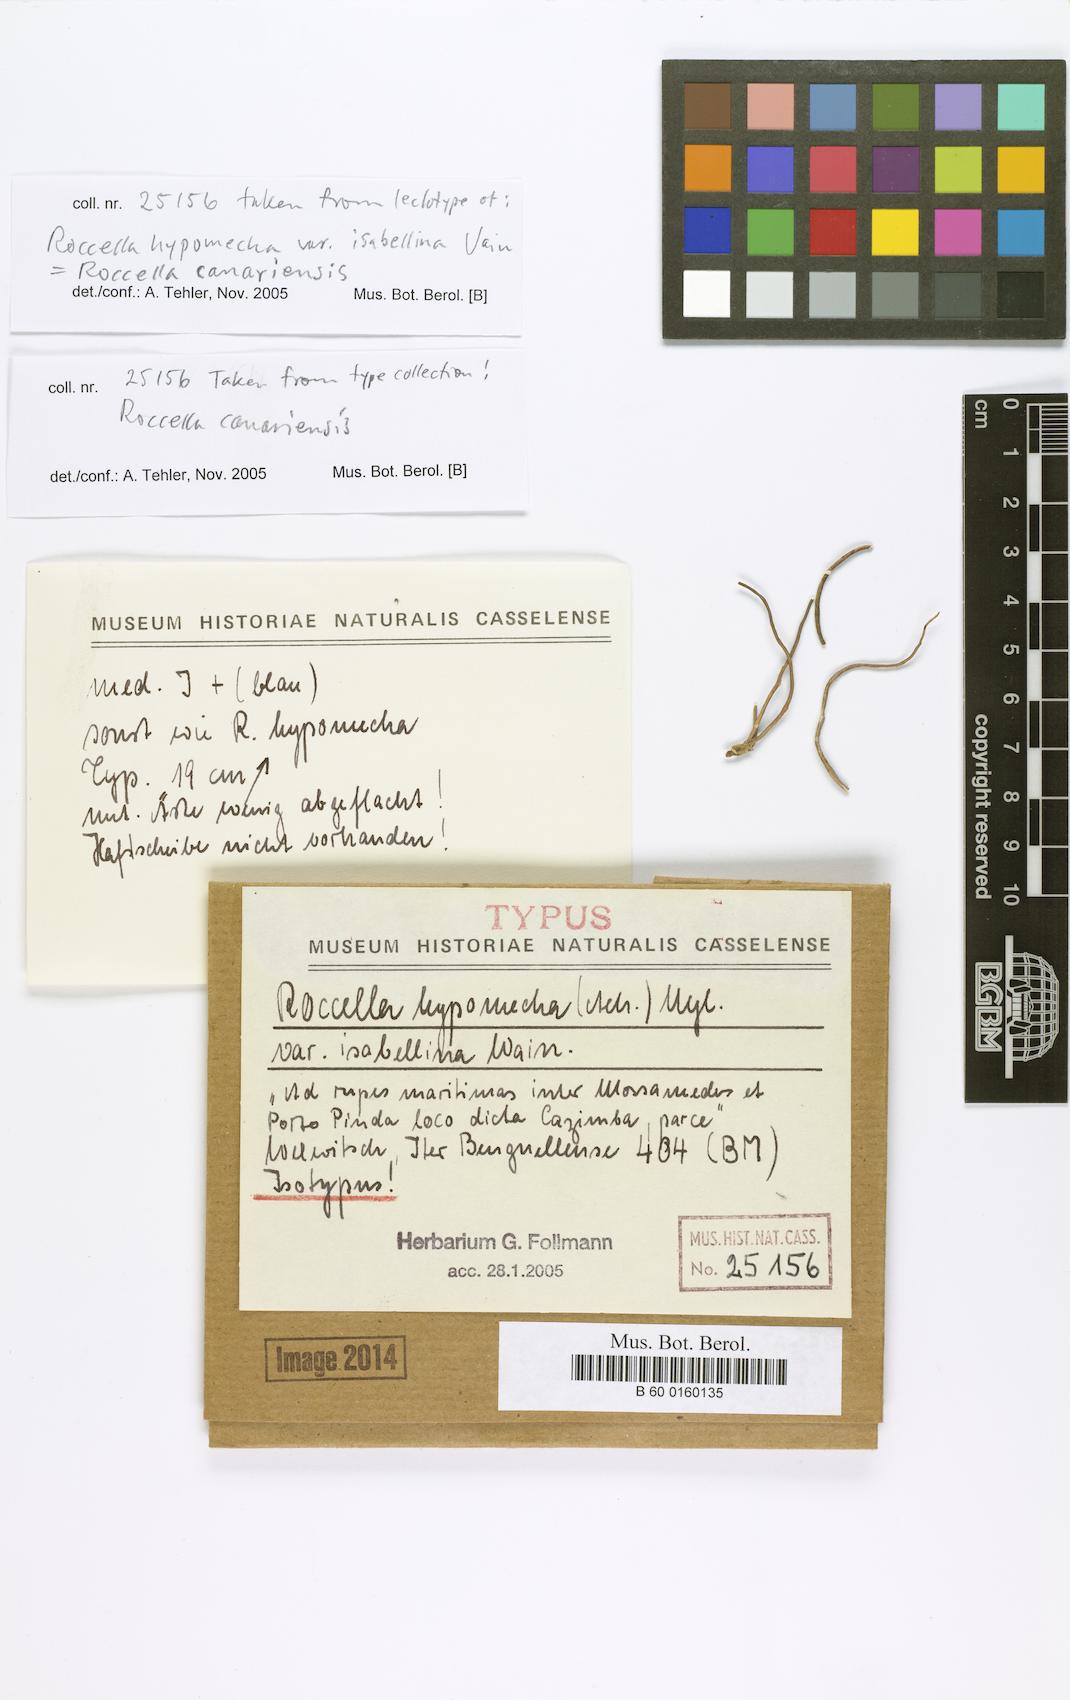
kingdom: Fungi
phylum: Ascomycota
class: Arthoniomycetes
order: Arthoniales
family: Roccellaceae
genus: Roccellina
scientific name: Roccellina hypomecha
